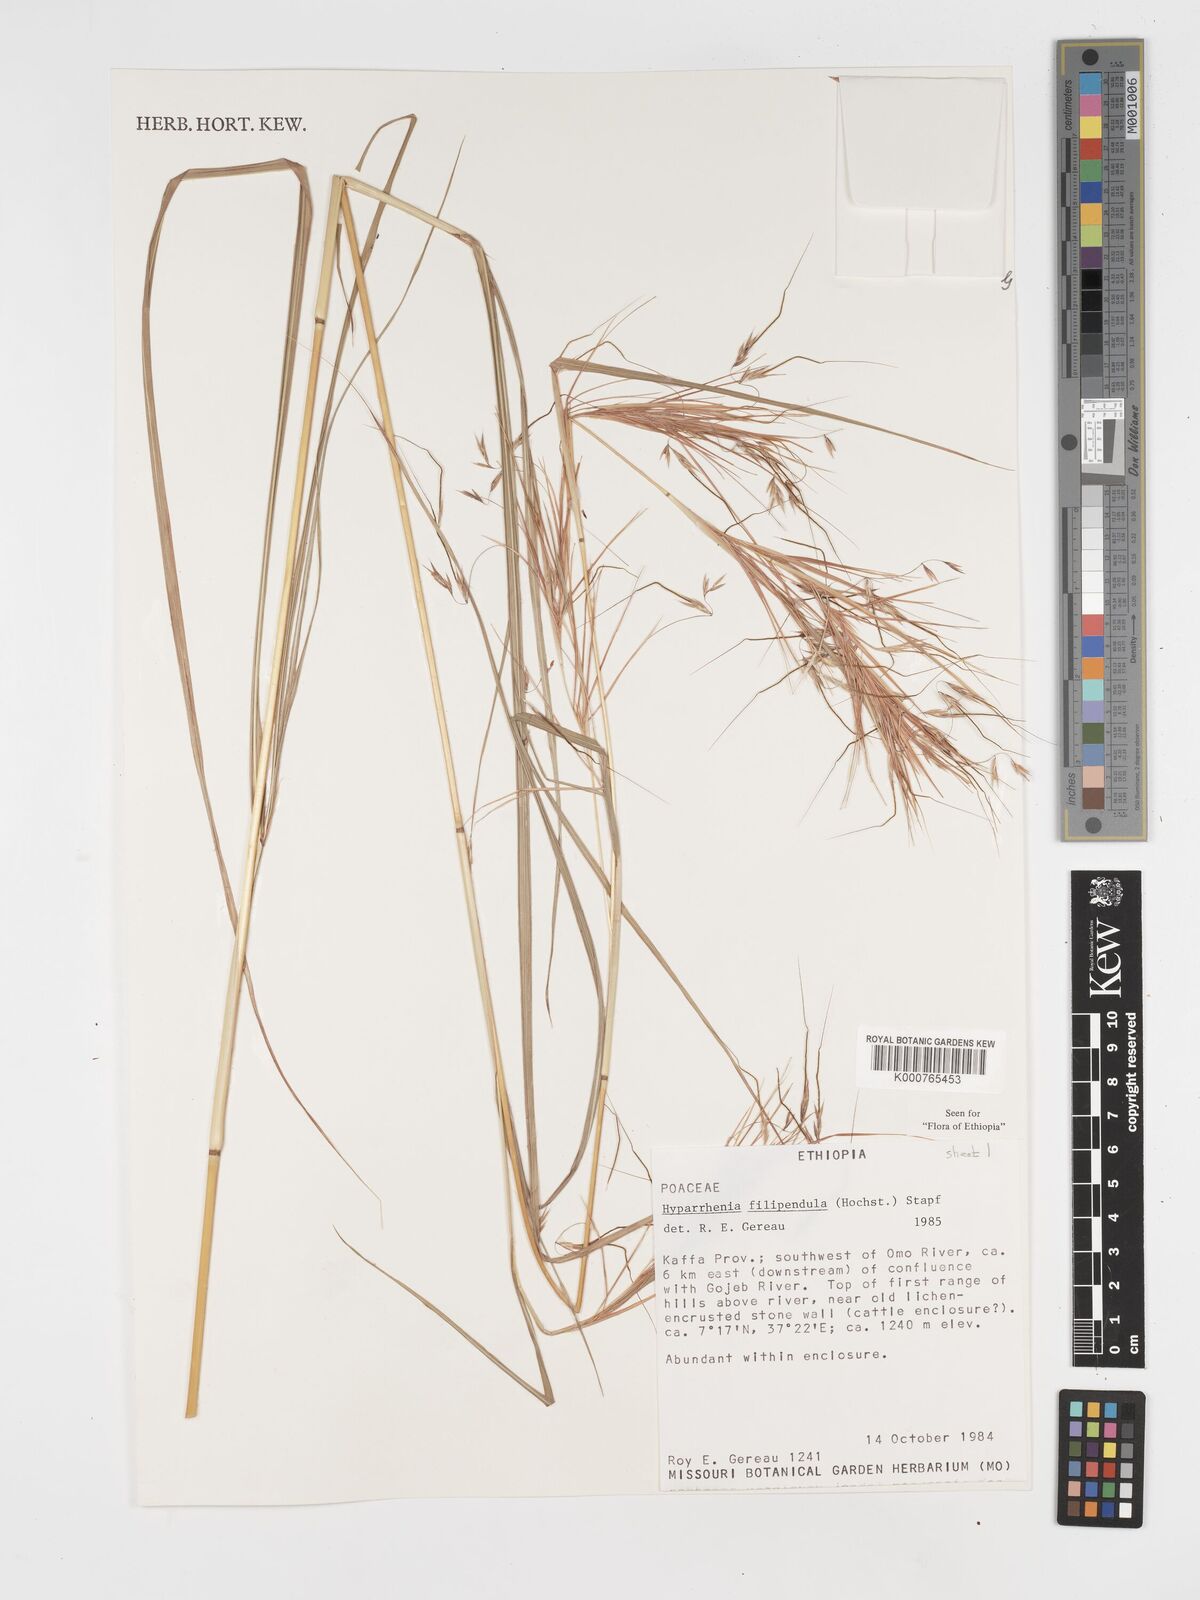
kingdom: Plantae
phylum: Tracheophyta
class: Liliopsida
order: Poales
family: Poaceae
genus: Hyparrhenia
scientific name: Hyparrhenia filipendula
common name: Tambookie grass
